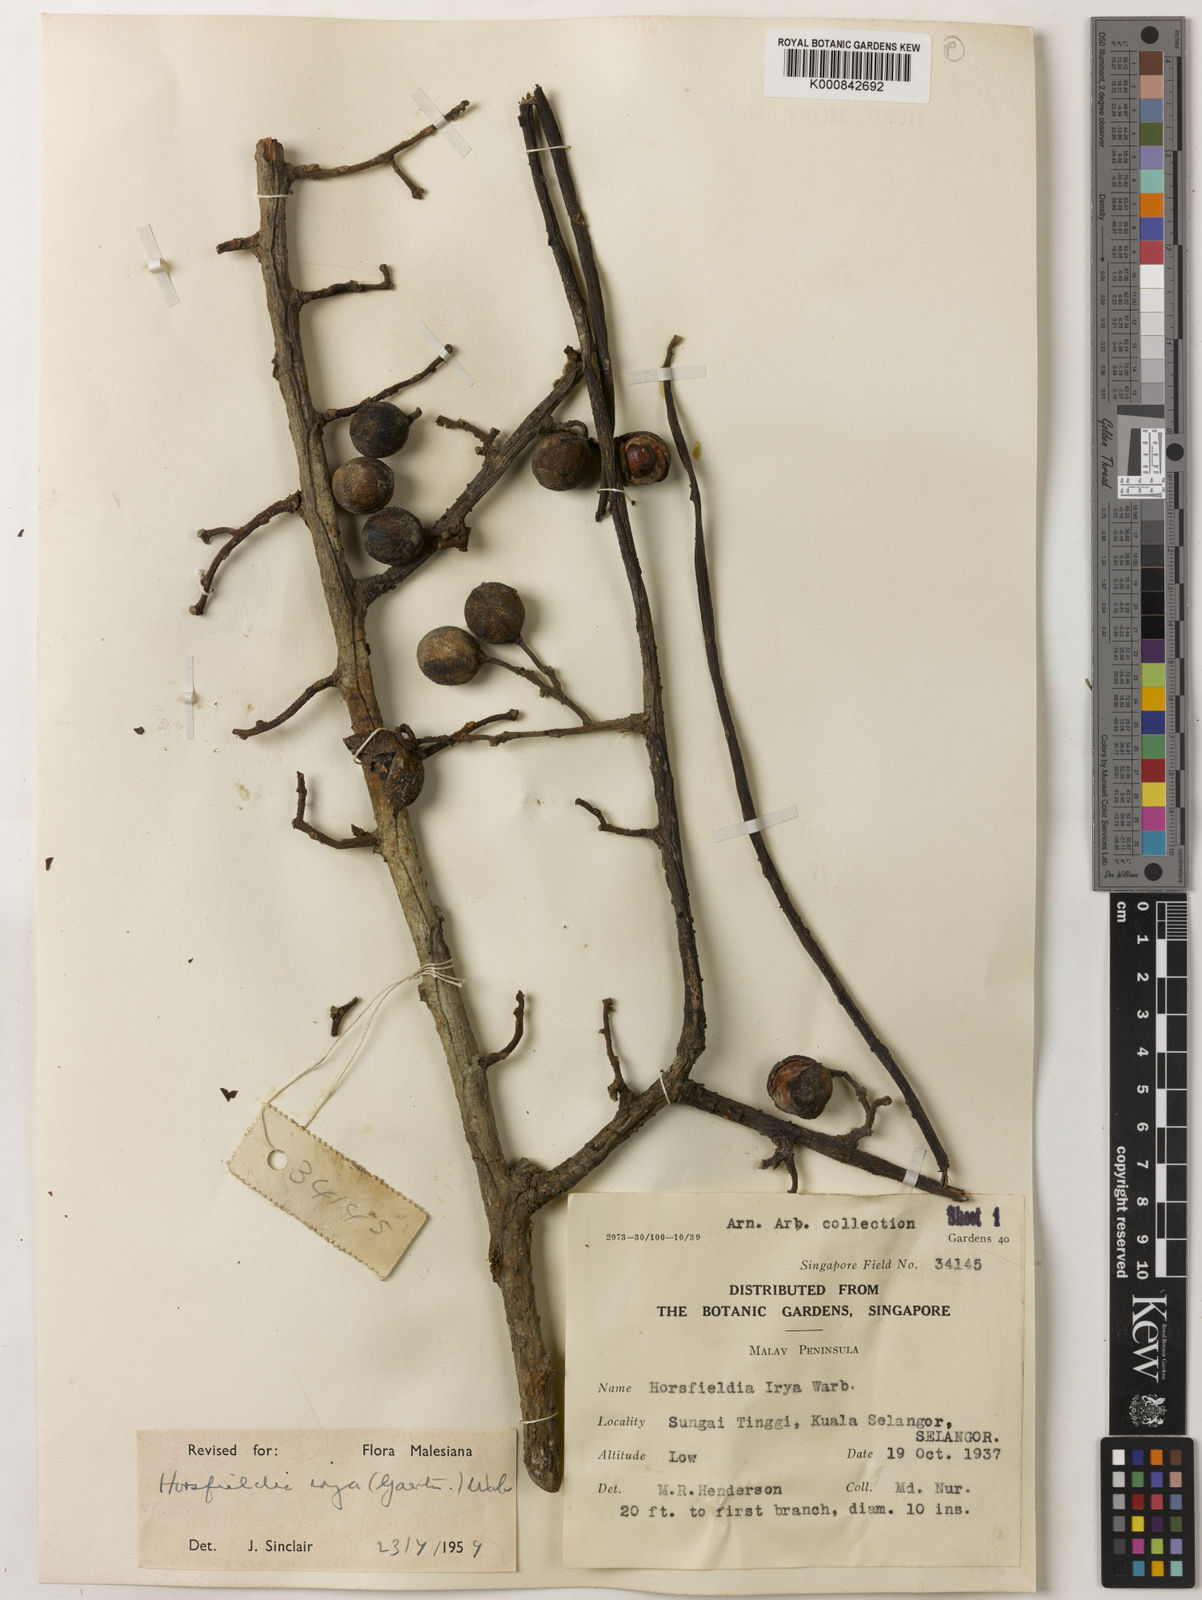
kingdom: Plantae
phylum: Tracheophyta
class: Magnoliopsida
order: Magnoliales
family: Myristicaceae
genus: Horsfieldia
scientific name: Horsfieldia irya
